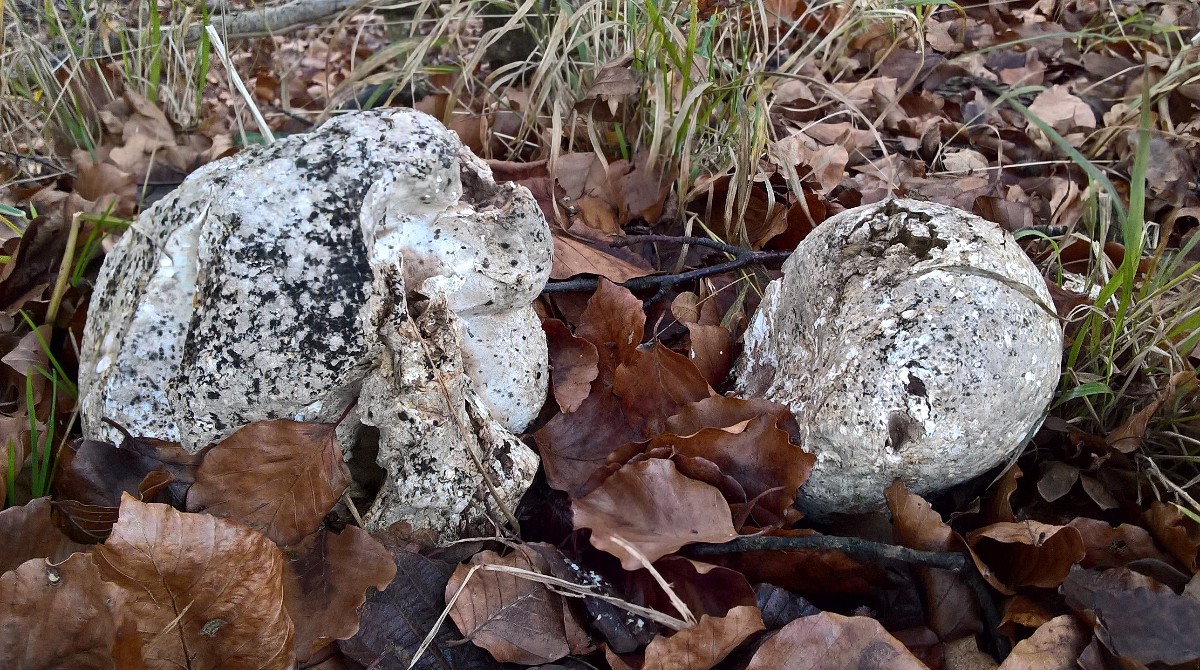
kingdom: Fungi
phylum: Basidiomycota
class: Agaricomycetes
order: Agaricales
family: Lycoperdaceae
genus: Calvatia
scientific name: Calvatia gigantea
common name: kæmpestøvbold
